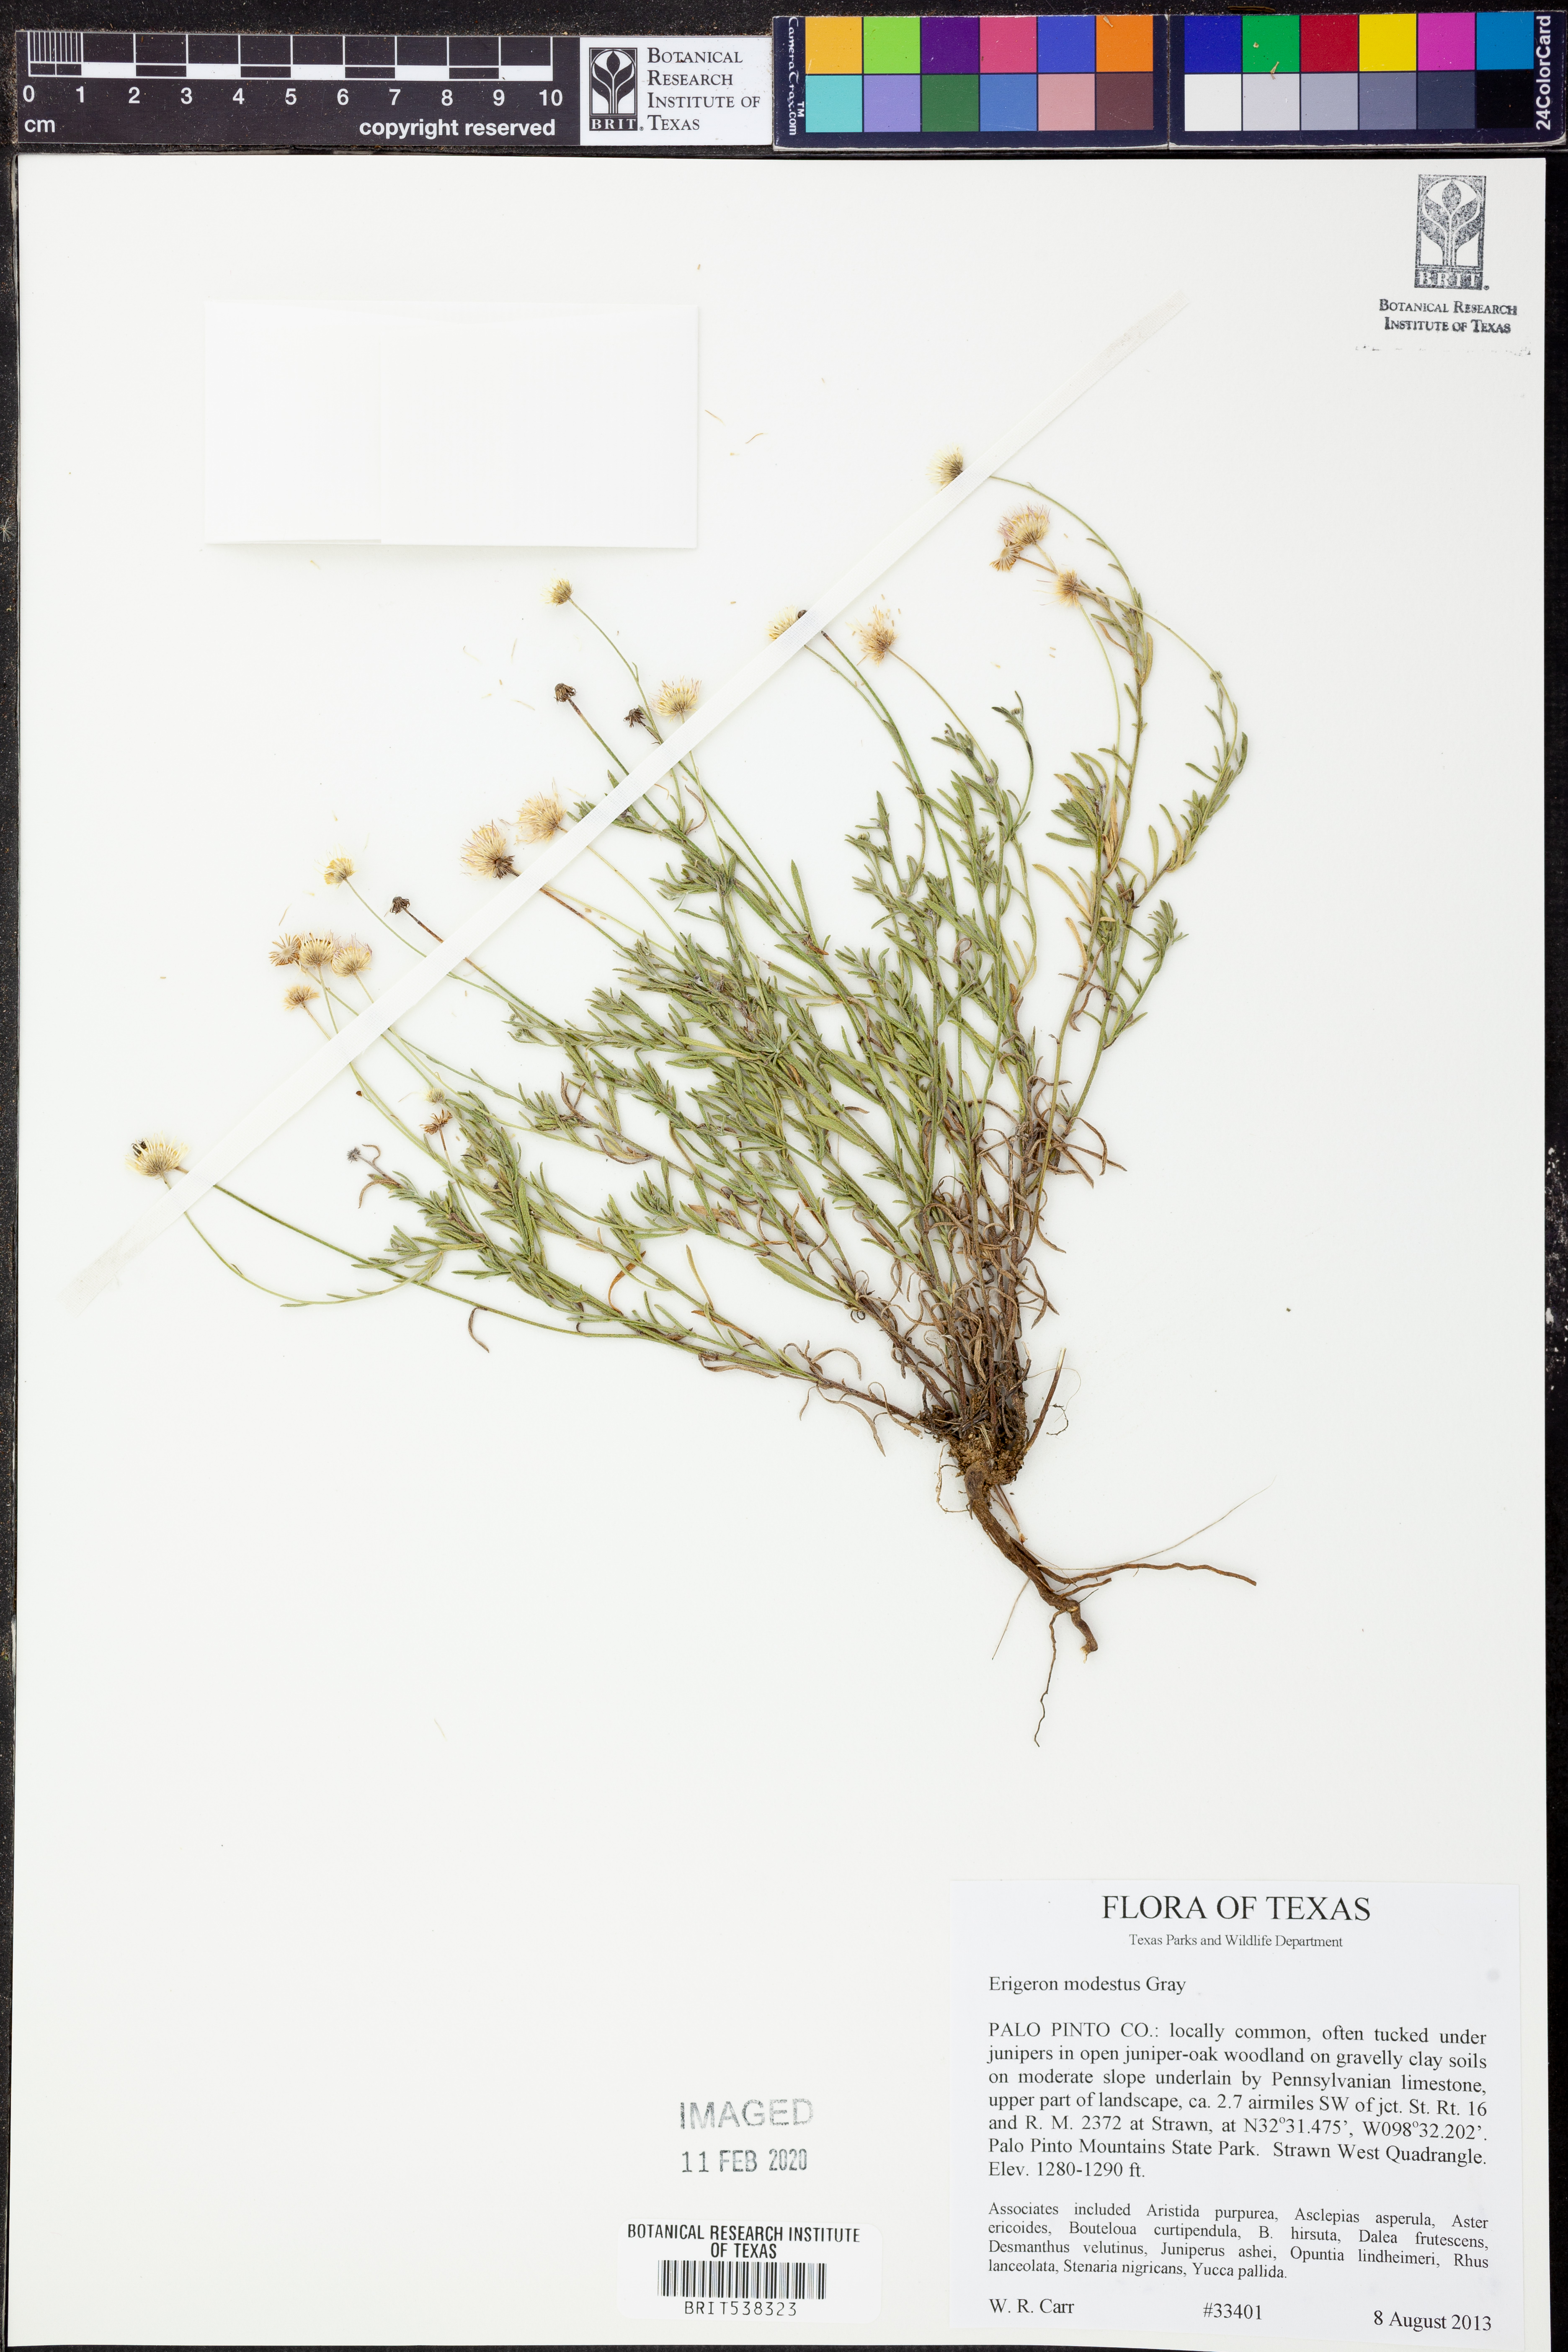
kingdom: Plantae
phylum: Tracheophyta
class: Magnoliopsida
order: Asterales
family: Asteraceae
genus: Erigeron
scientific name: Erigeron modestus
